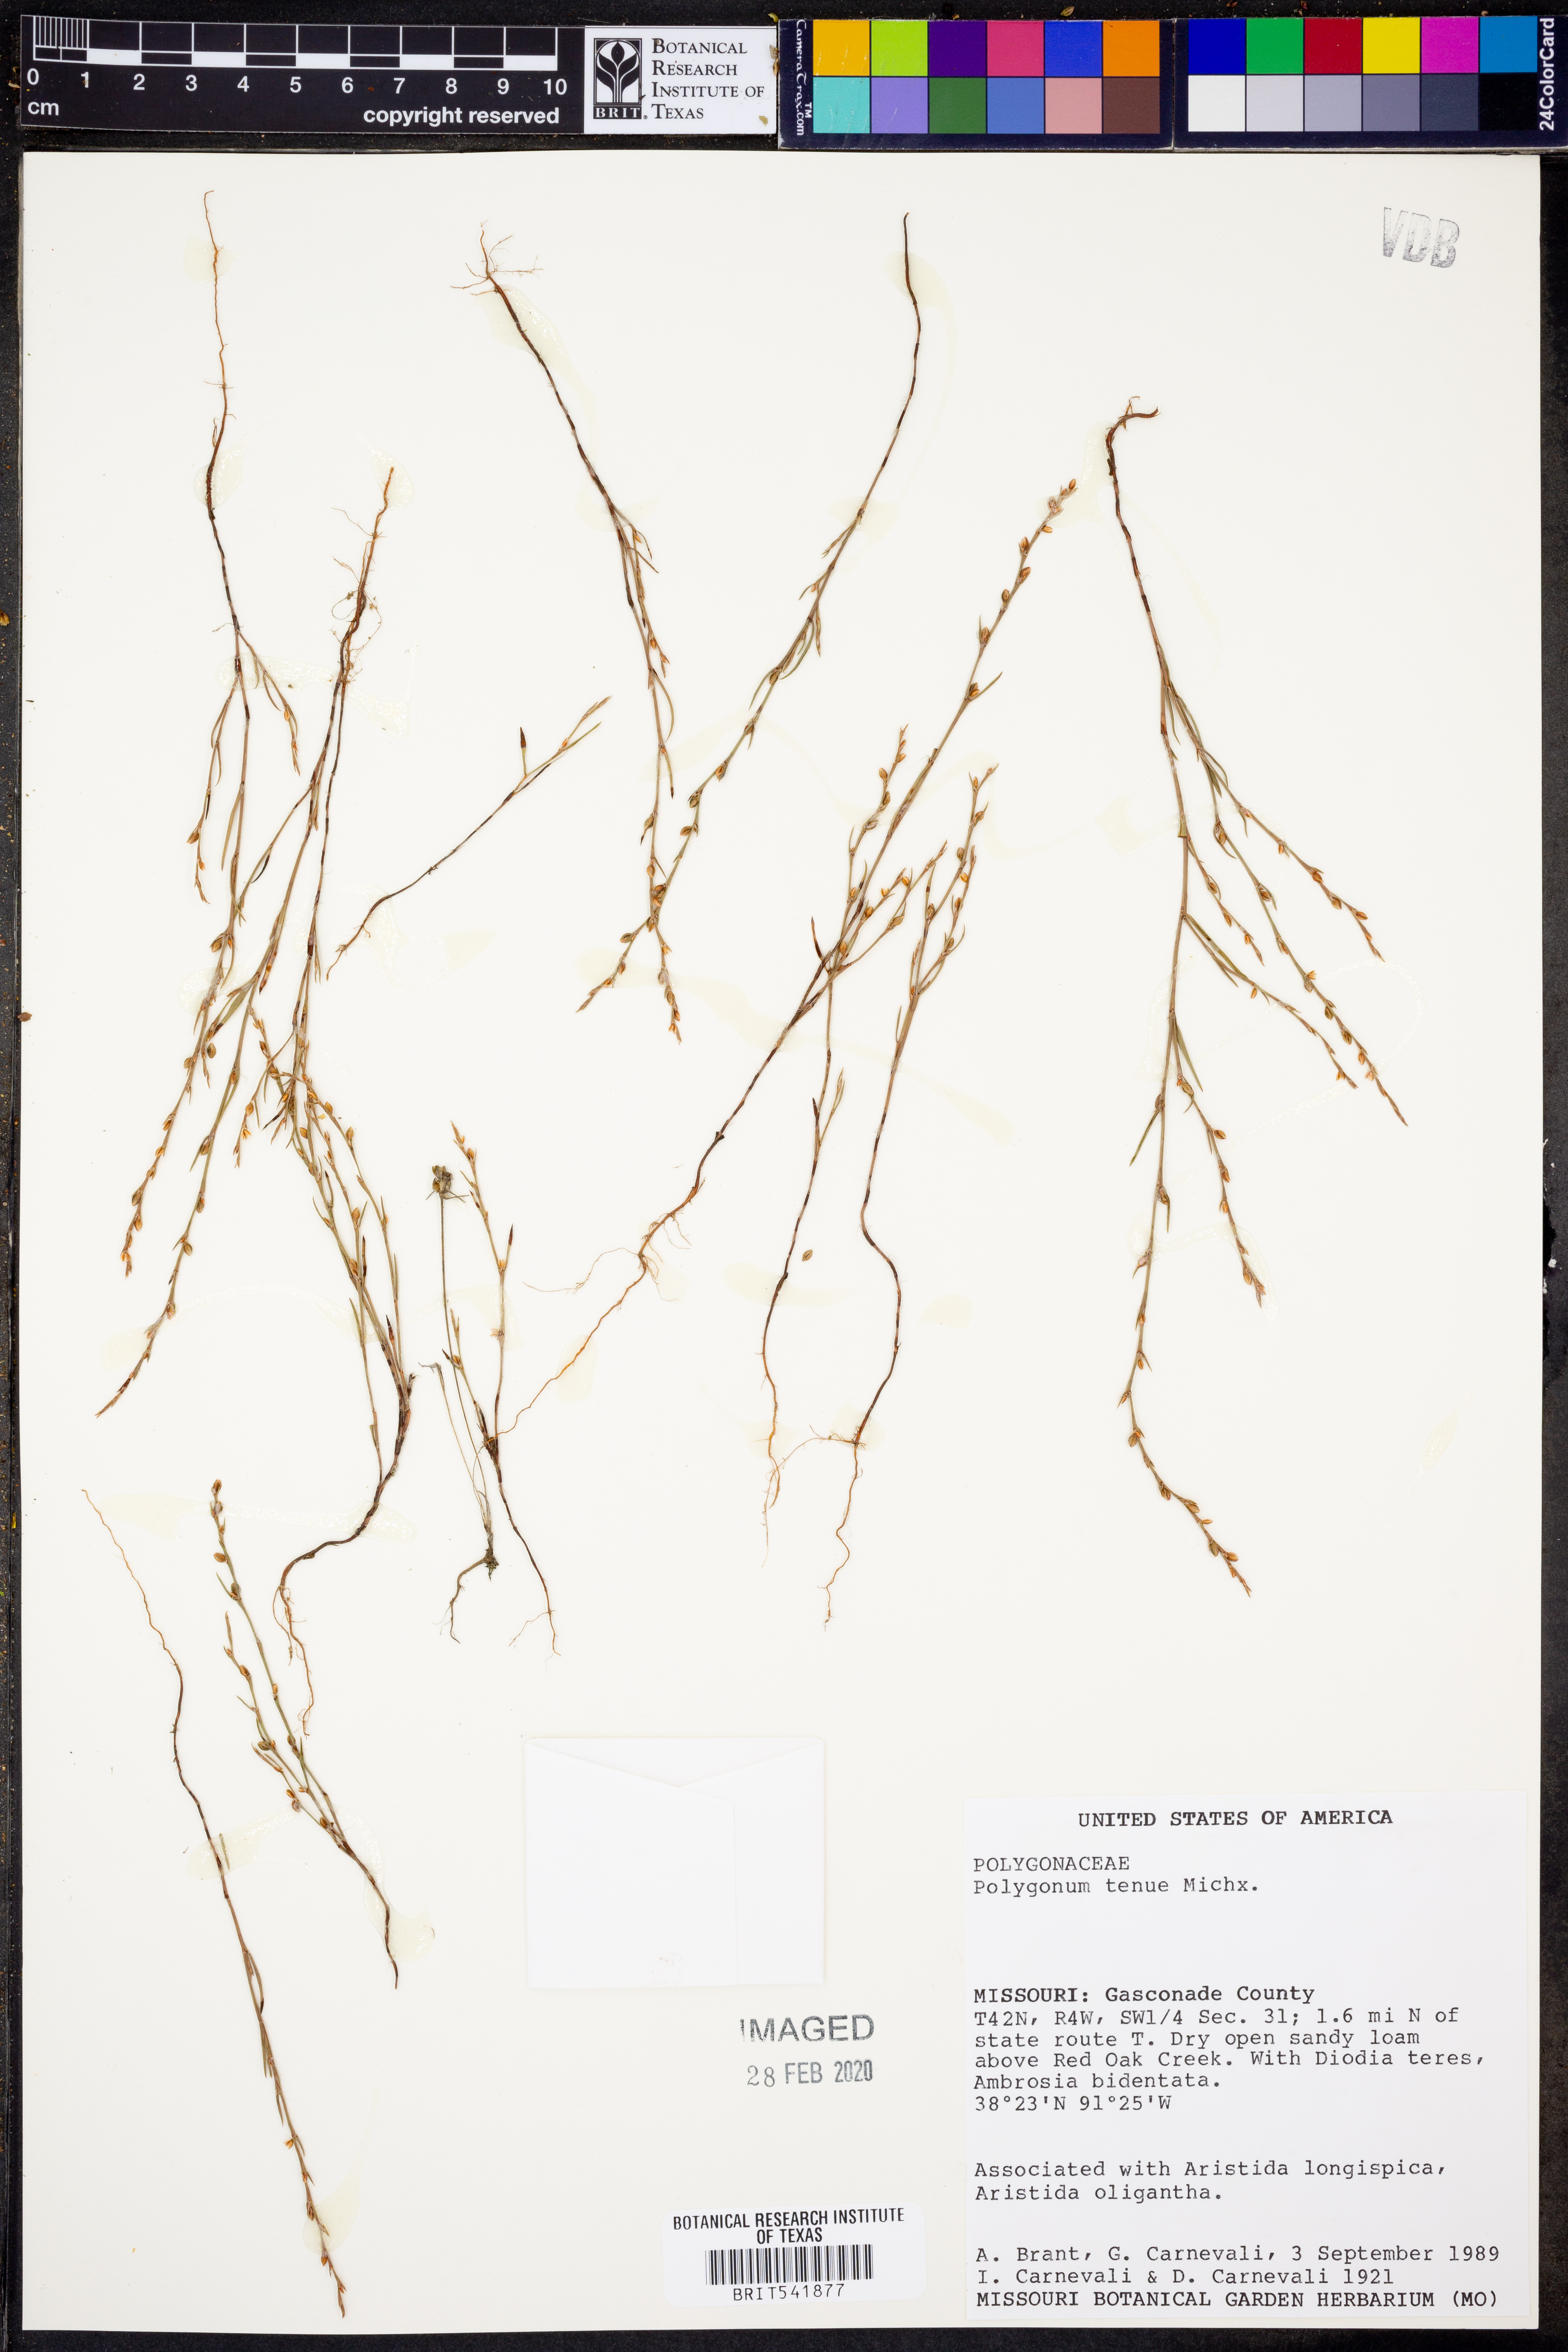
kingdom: Plantae
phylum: Tracheophyta
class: Magnoliopsida
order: Caryophyllales
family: Polygonaceae
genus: Polygonum
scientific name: Polygonum tenue
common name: Pleat-leaved knotweed
